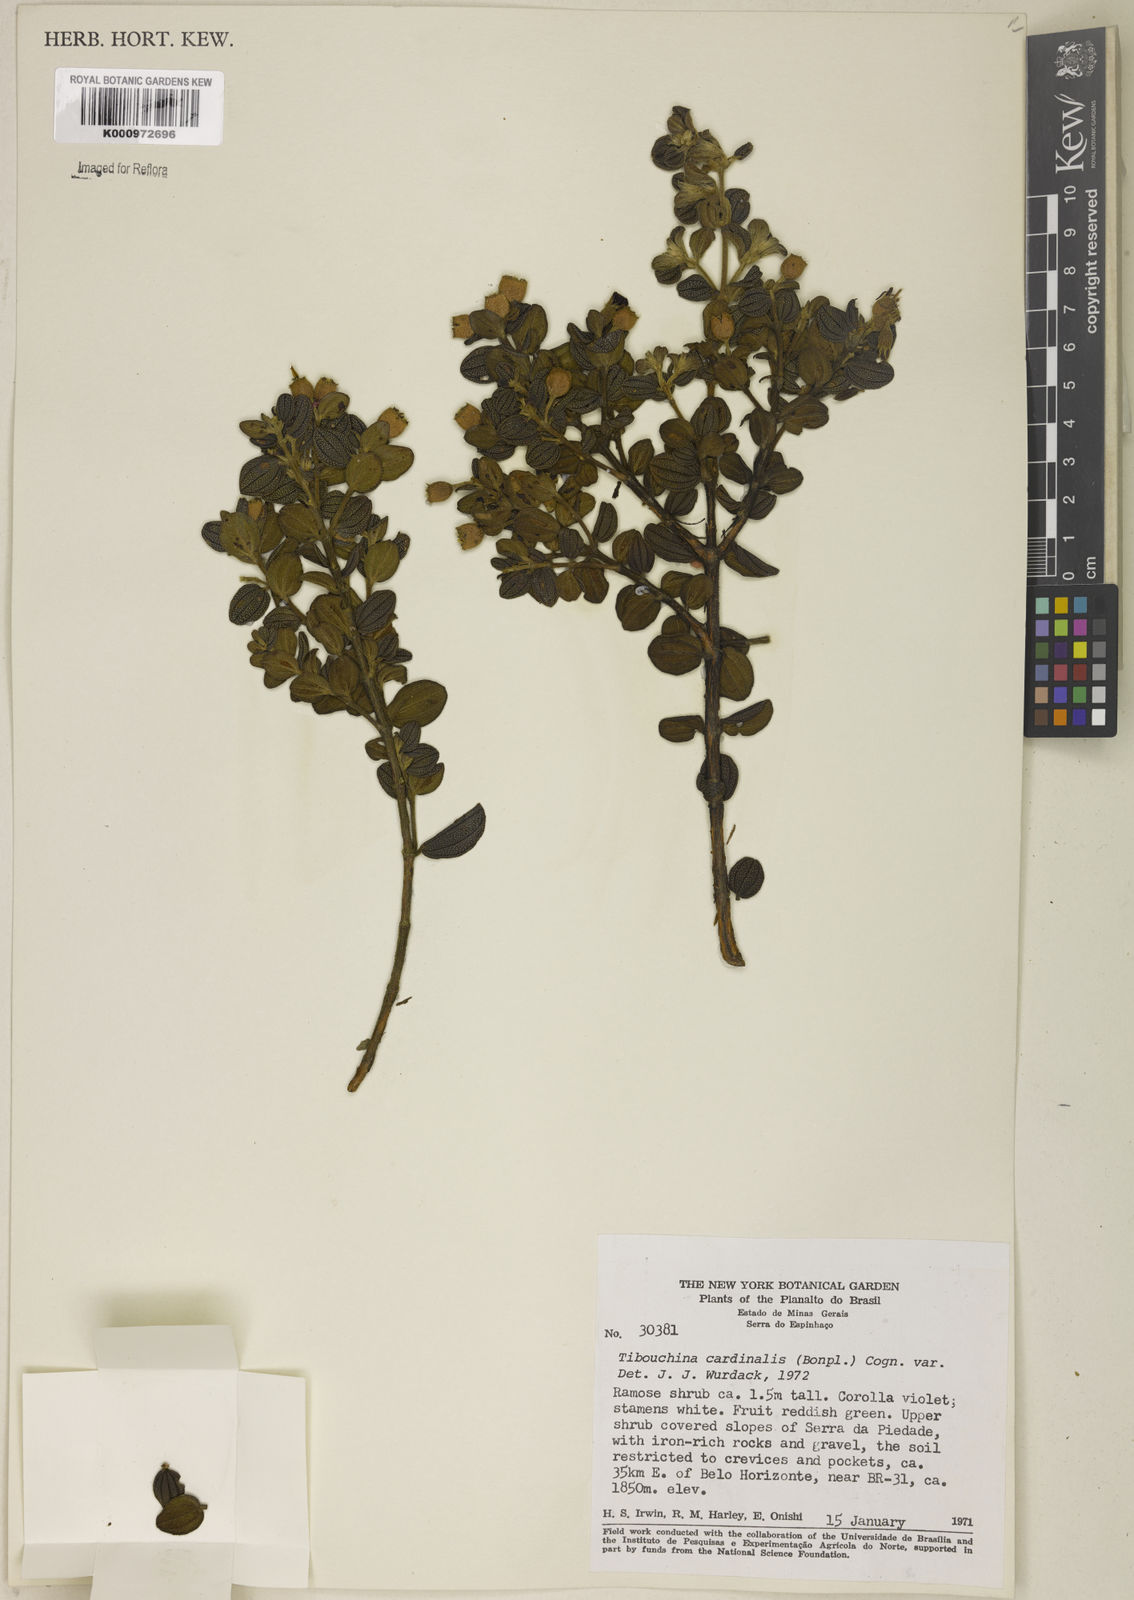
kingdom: Plantae
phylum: Tracheophyta
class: Magnoliopsida
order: Myrtales
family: Melastomataceae
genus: Chaetogastra
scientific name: Chaetogastra cardinalis
